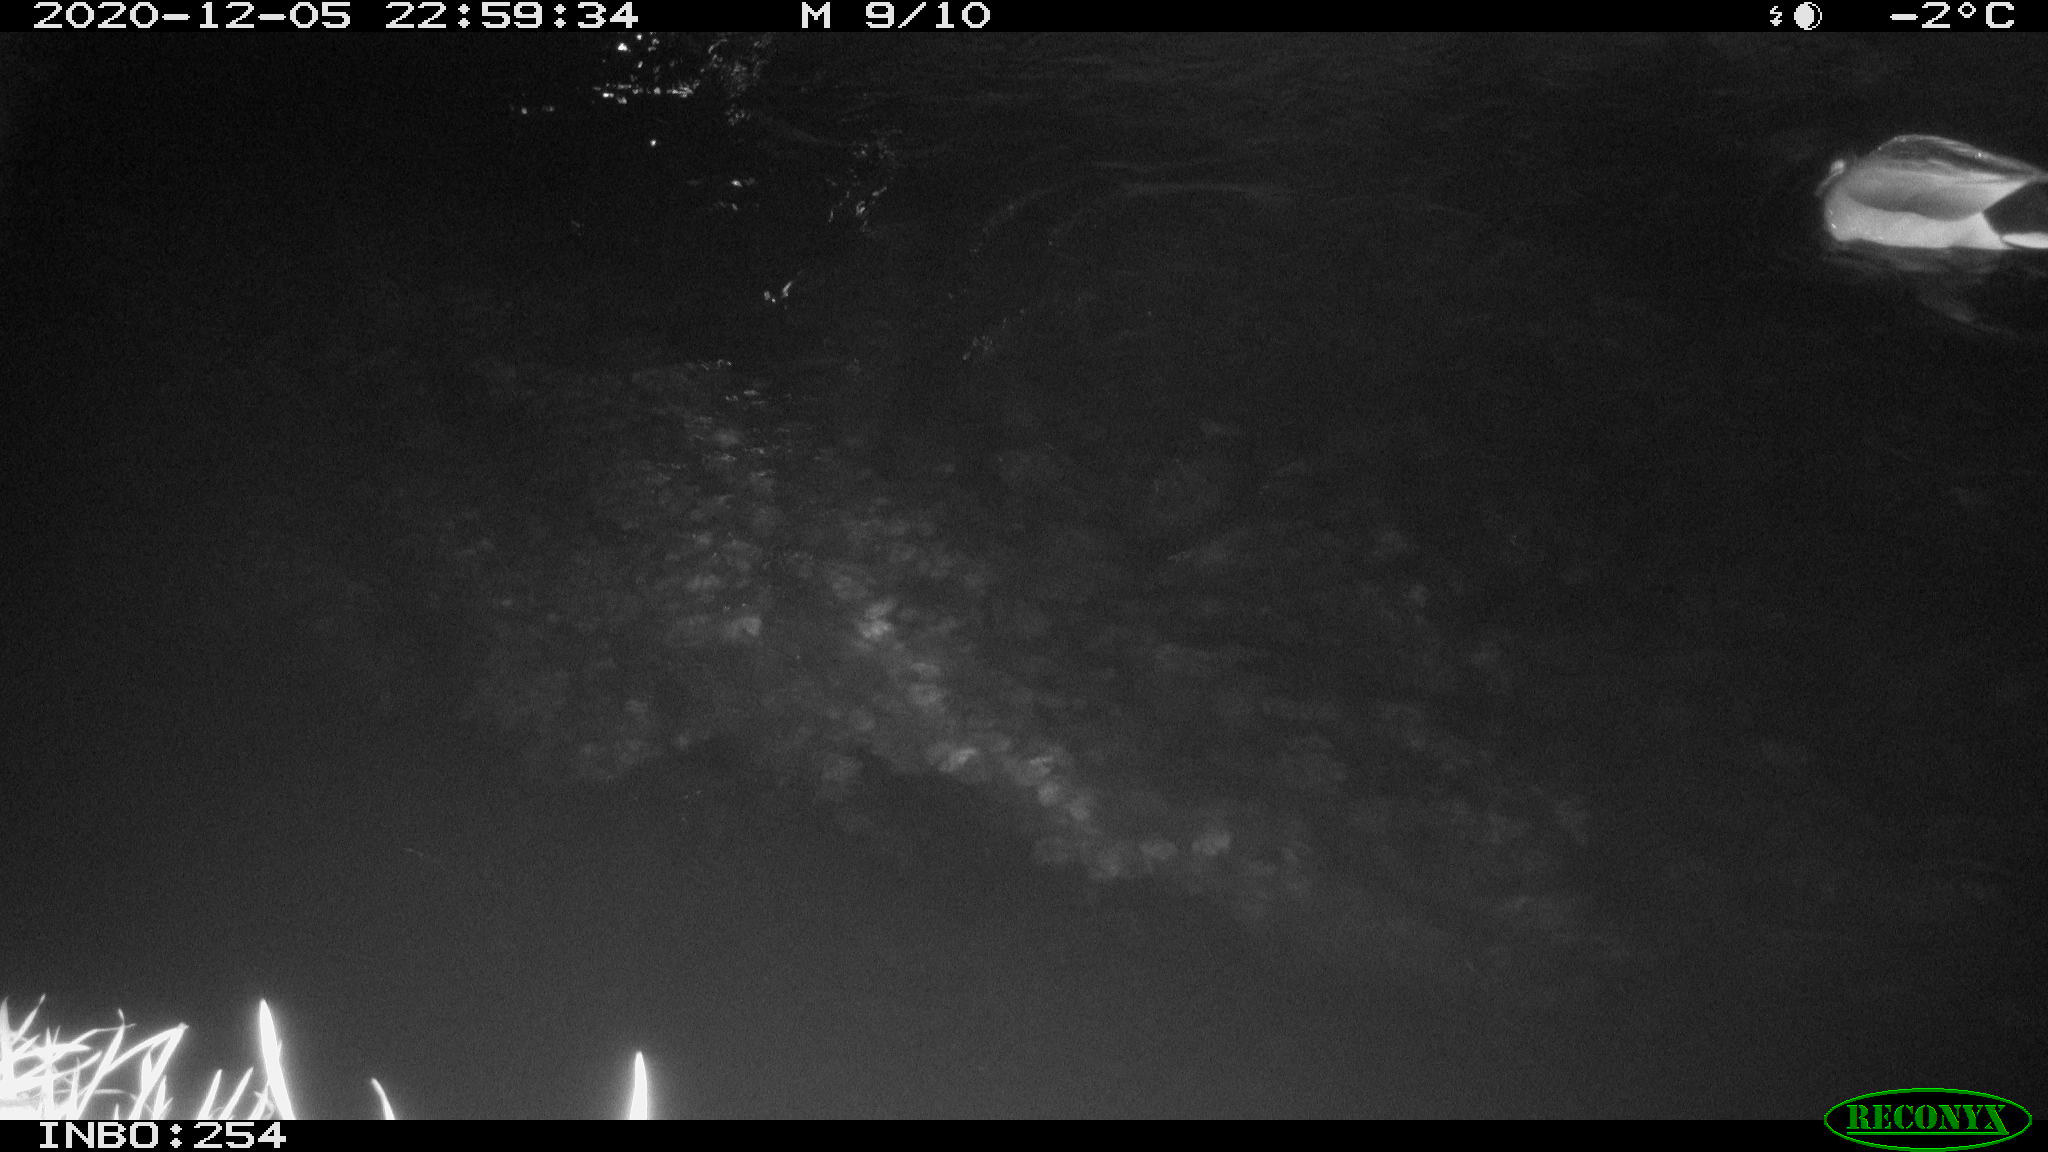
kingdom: Animalia
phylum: Chordata
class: Aves
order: Anseriformes
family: Anatidae
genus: Anas
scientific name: Anas platyrhynchos
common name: Mallard
